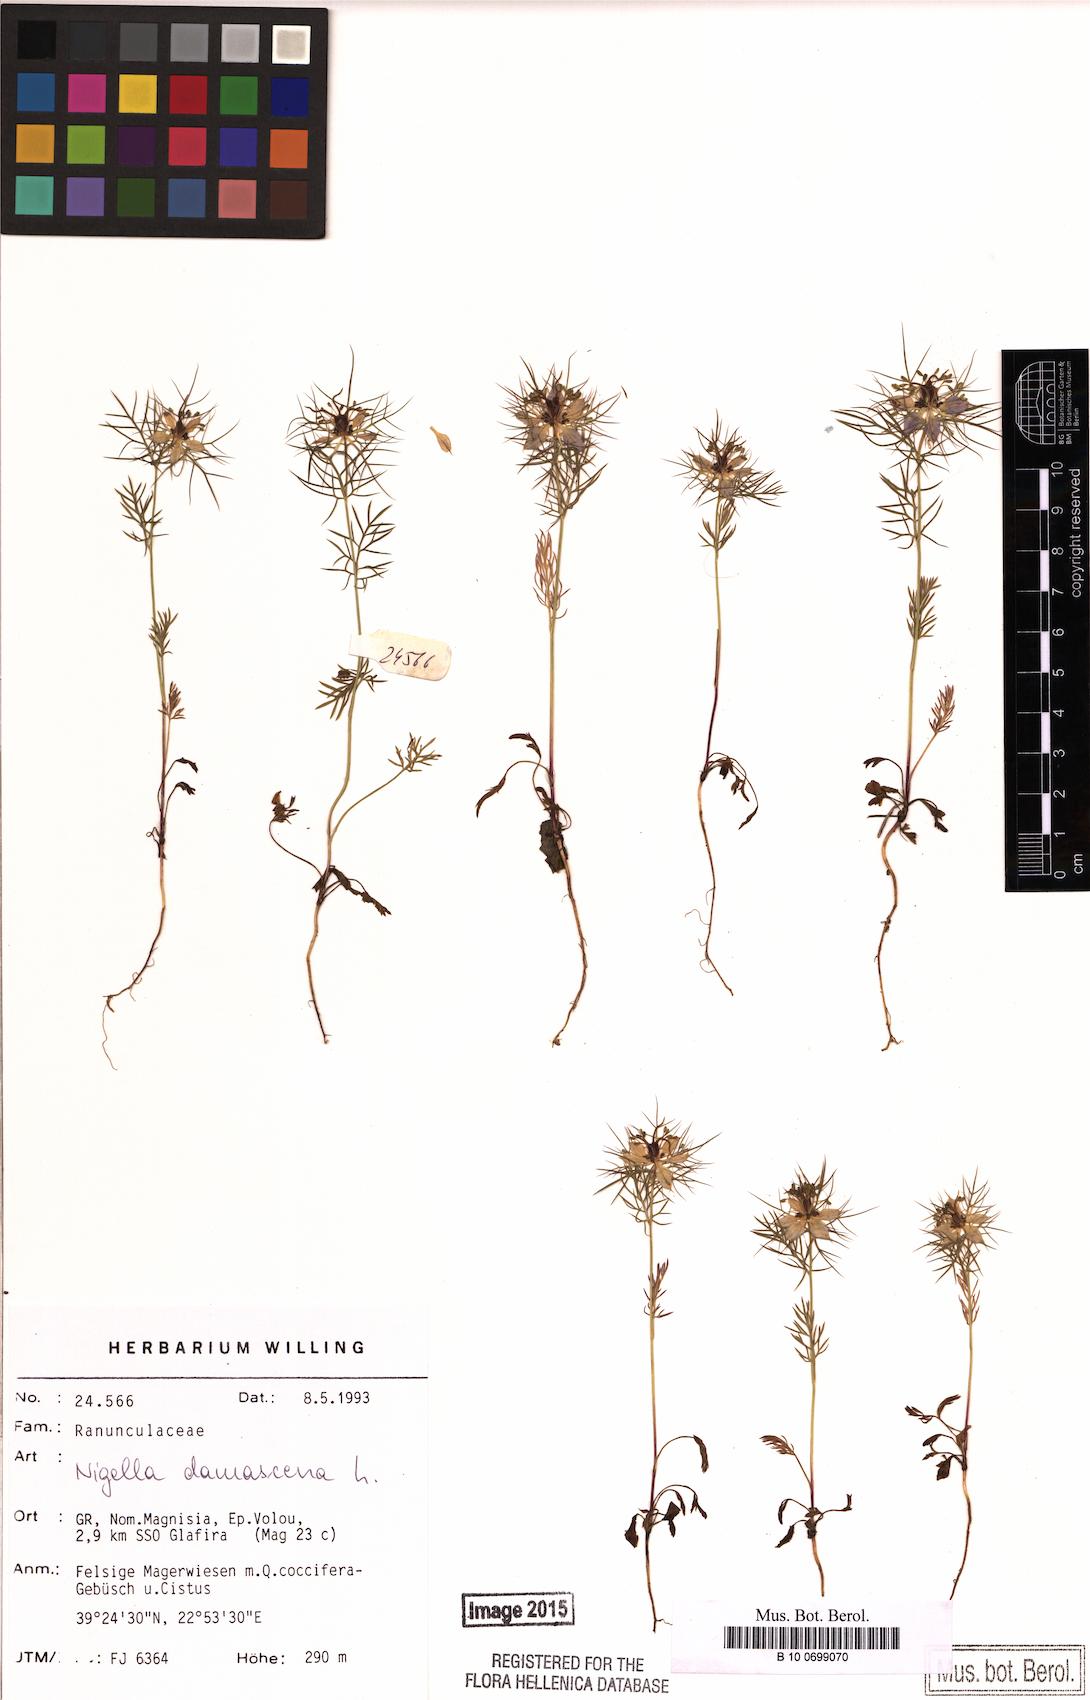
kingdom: Plantae
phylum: Tracheophyta
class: Magnoliopsida
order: Ranunculales
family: Ranunculaceae
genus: Nigella
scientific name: Nigella damascena
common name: Love-in-a-mist
